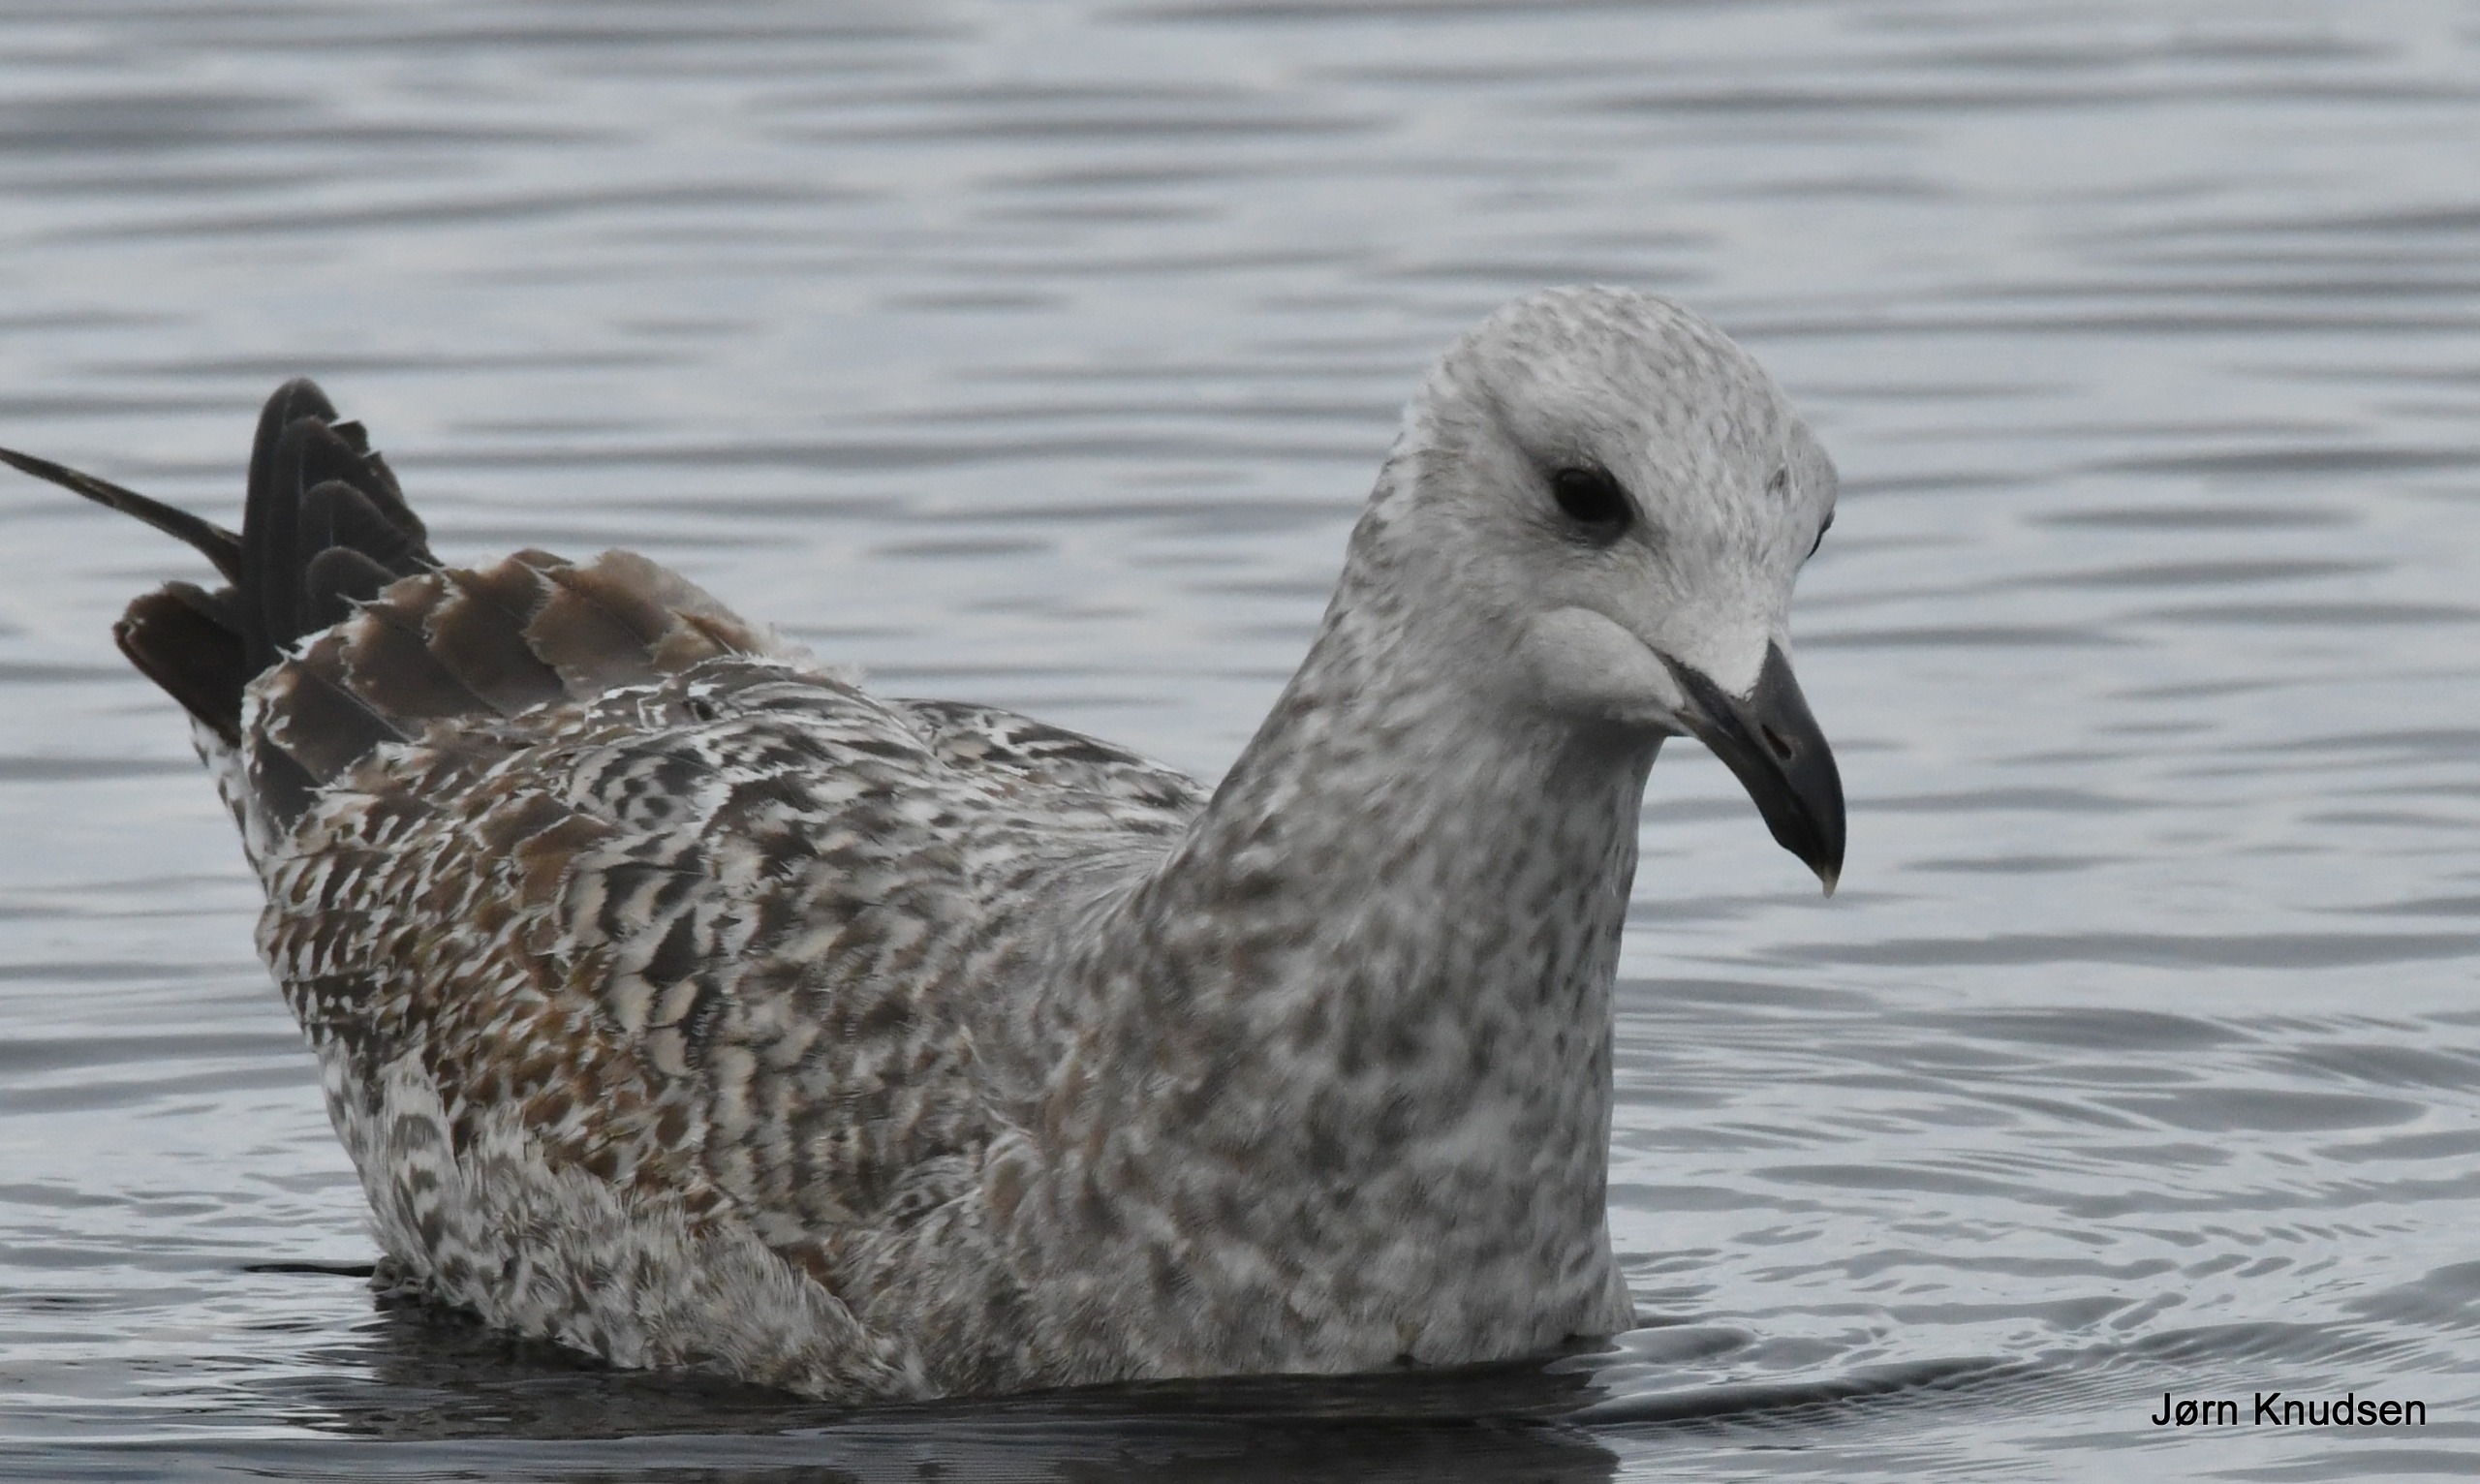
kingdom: Animalia
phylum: Chordata
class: Aves
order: Charadriiformes
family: Laridae
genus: Larus
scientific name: Larus argentatus
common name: Sølvmåge
